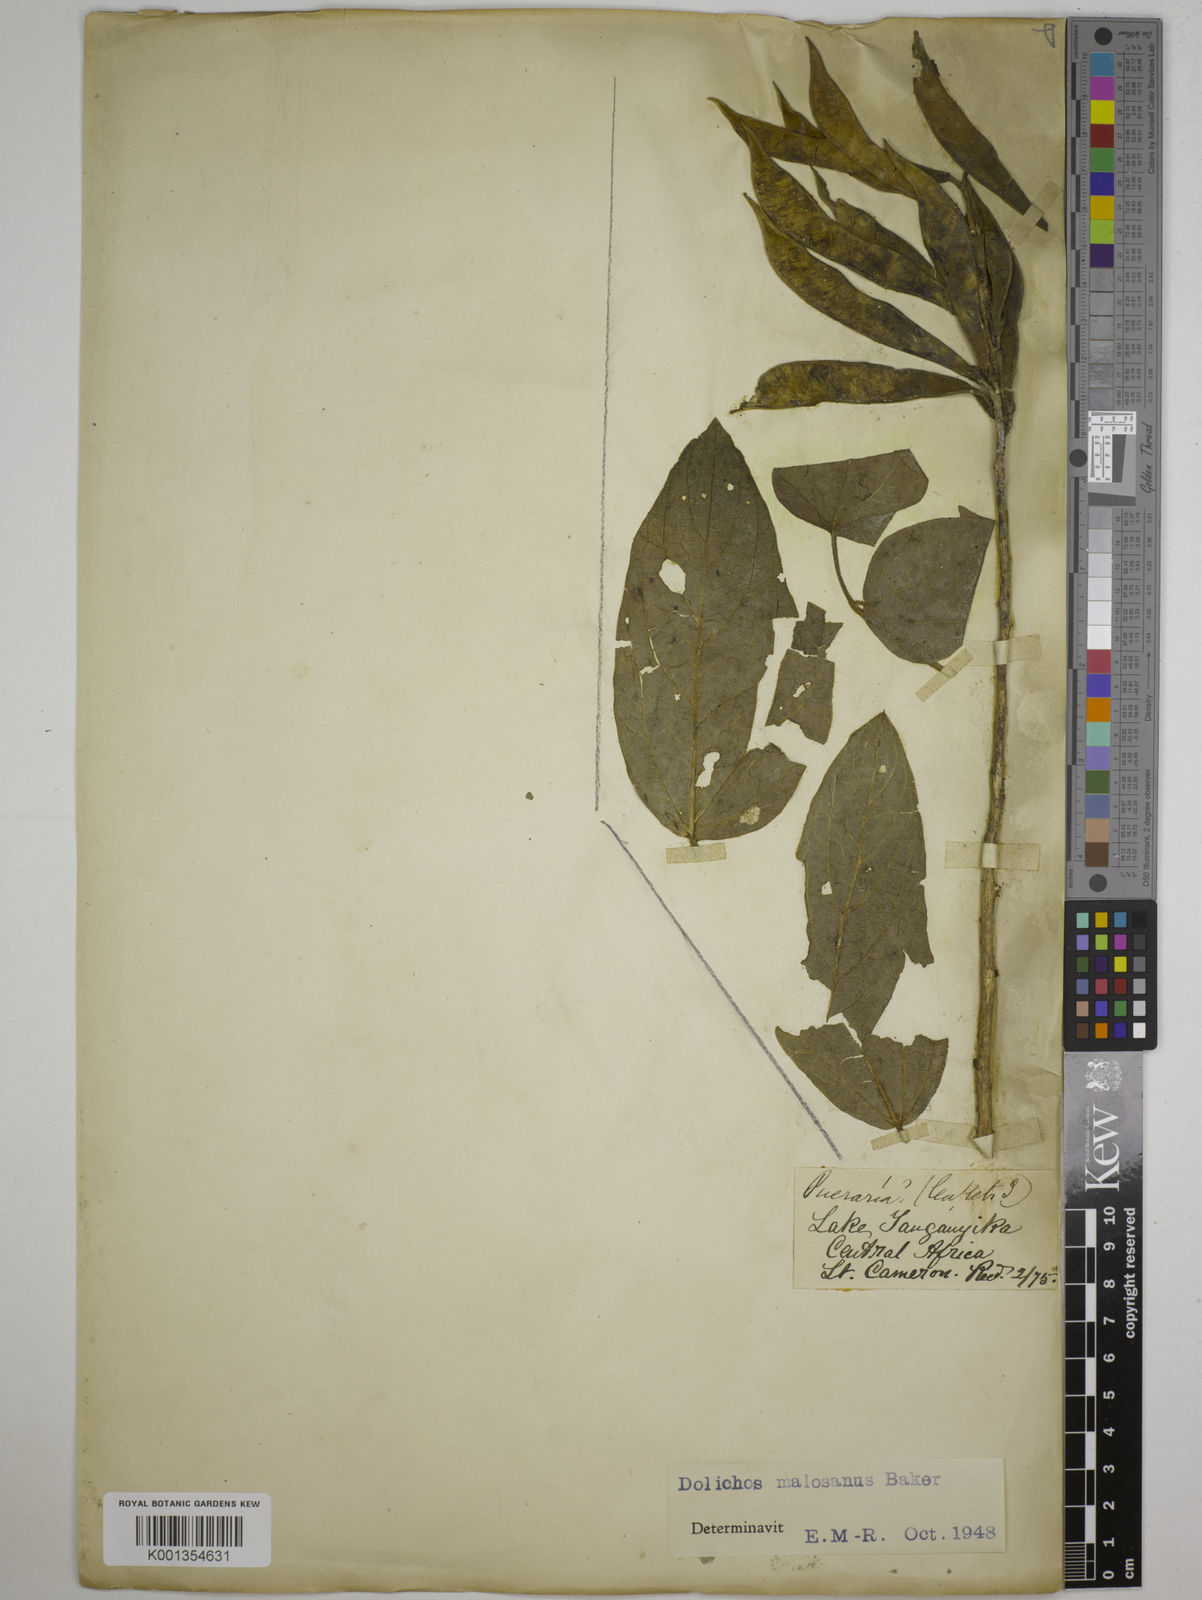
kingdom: Plantae
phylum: Tracheophyta
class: Magnoliopsida
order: Fabales
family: Fabaceae
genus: Dolichos
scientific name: Dolichos kilimandscharicus
